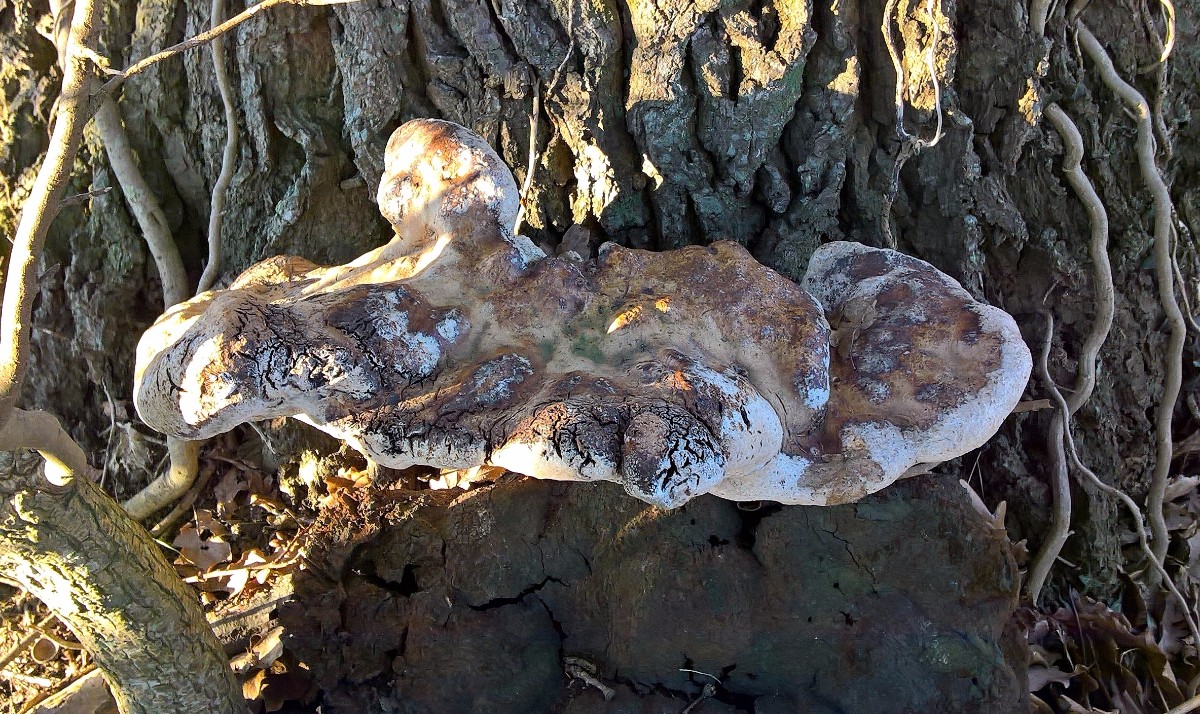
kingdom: Fungi
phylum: Basidiomycota
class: Agaricomycetes
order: Hymenochaetales
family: Hymenochaetaceae
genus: Pseudoinonotus
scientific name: Pseudoinonotus dryadeus
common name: ege-spejlporesvamp
